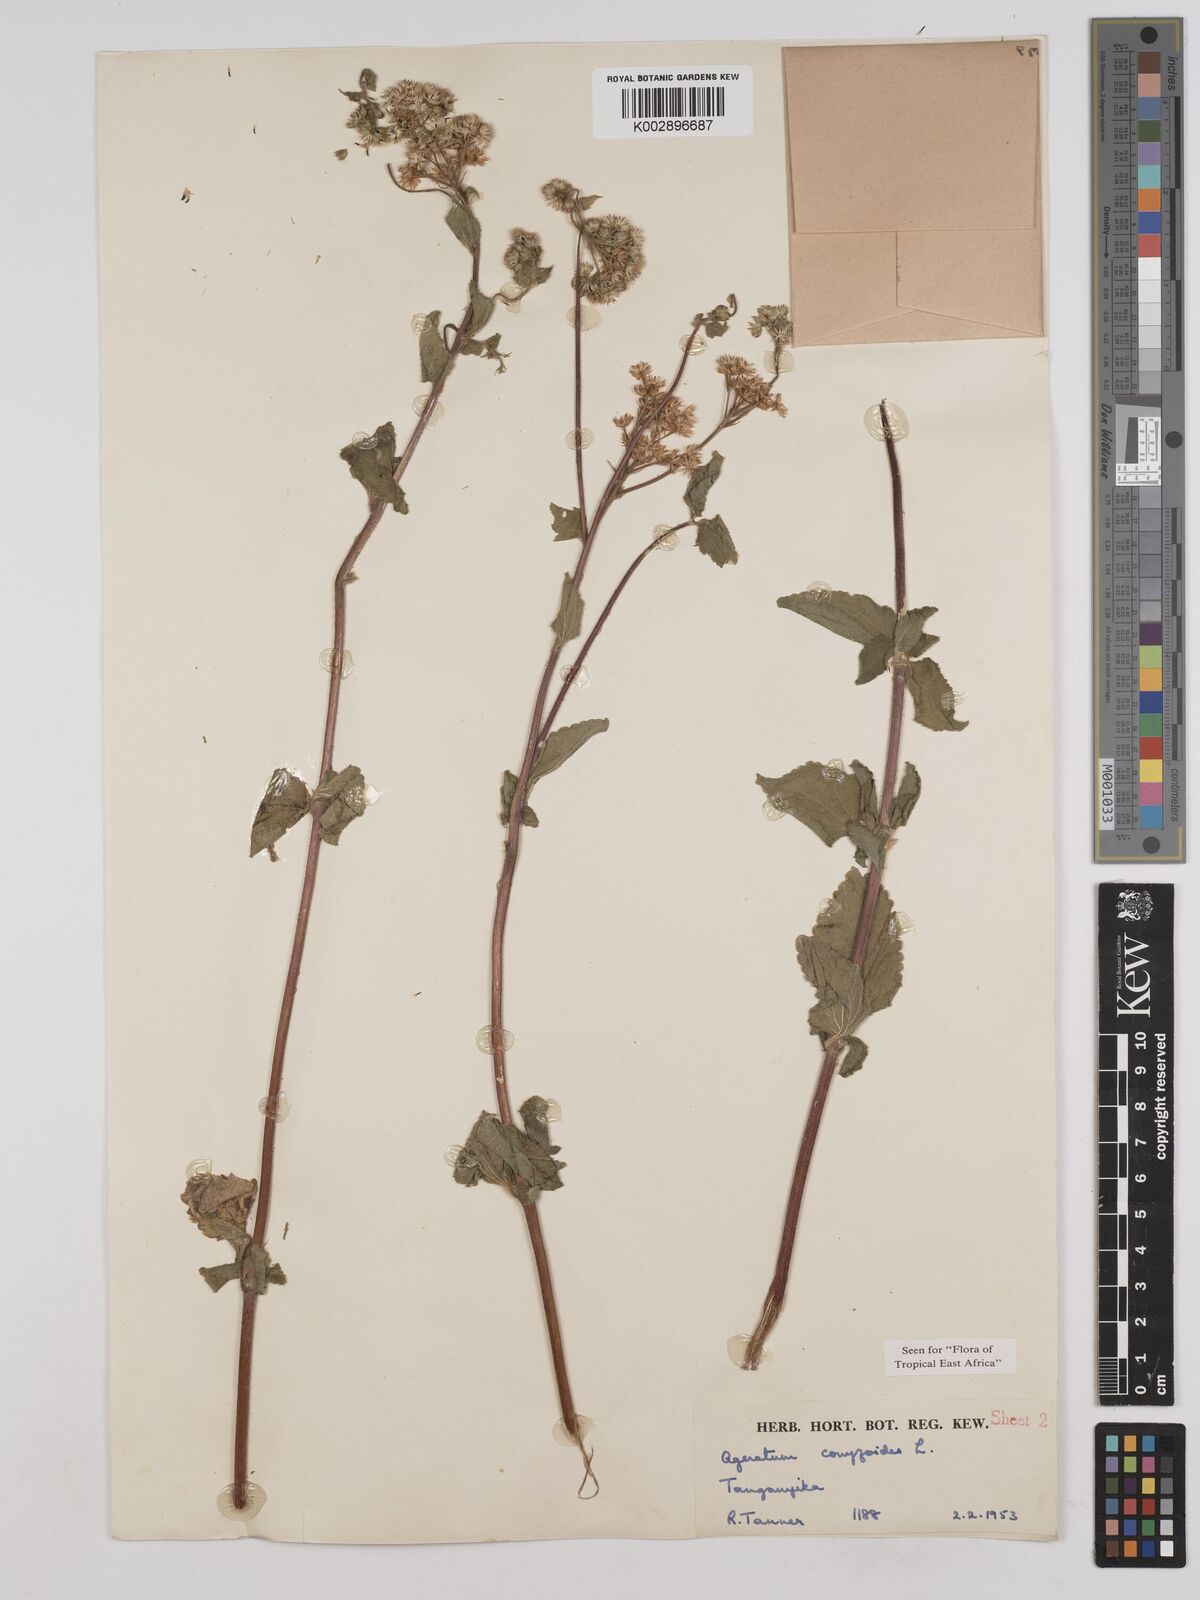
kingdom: Plantae
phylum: Tracheophyta
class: Magnoliopsida
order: Asterales
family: Asteraceae
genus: Ageratum
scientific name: Ageratum conyzoides
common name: Tropical whiteweed
